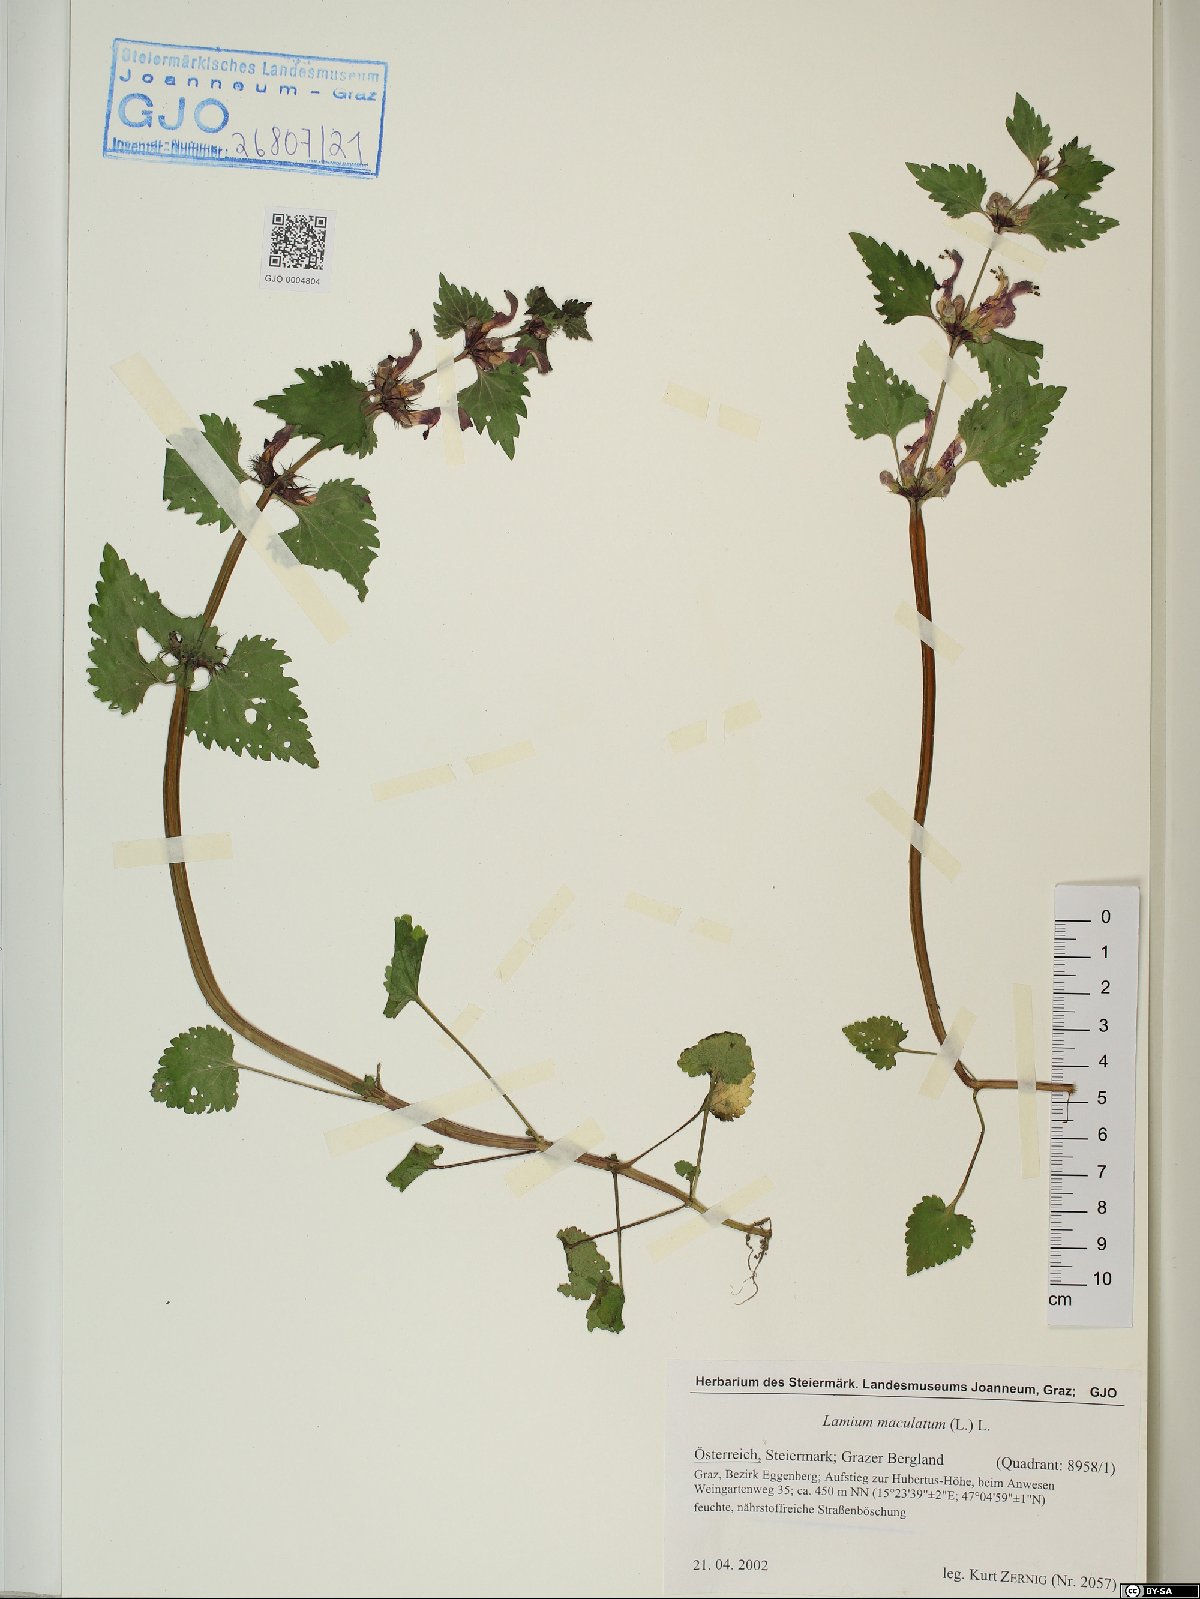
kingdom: Plantae
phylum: Tracheophyta
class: Magnoliopsida
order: Lamiales
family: Lamiaceae
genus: Lamium
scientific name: Lamium maculatum
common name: Spotted dead-nettle
